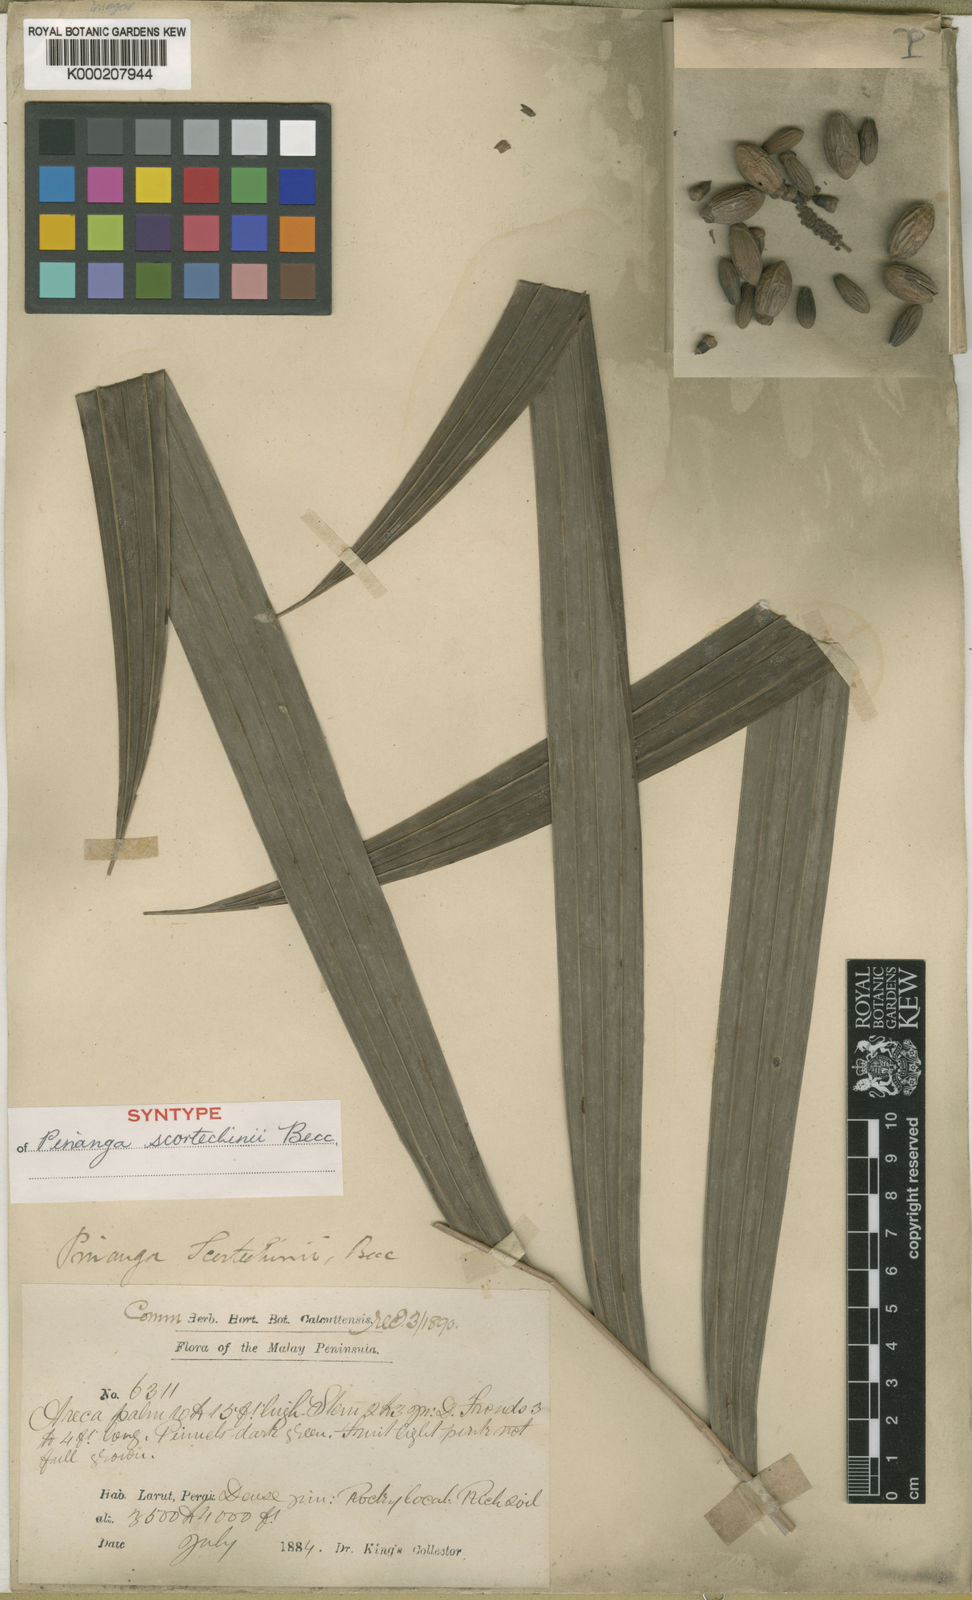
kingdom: Plantae
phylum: Tracheophyta
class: Liliopsida
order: Arecales
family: Arecaceae
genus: Pinanga
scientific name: Pinanga scortechinii
